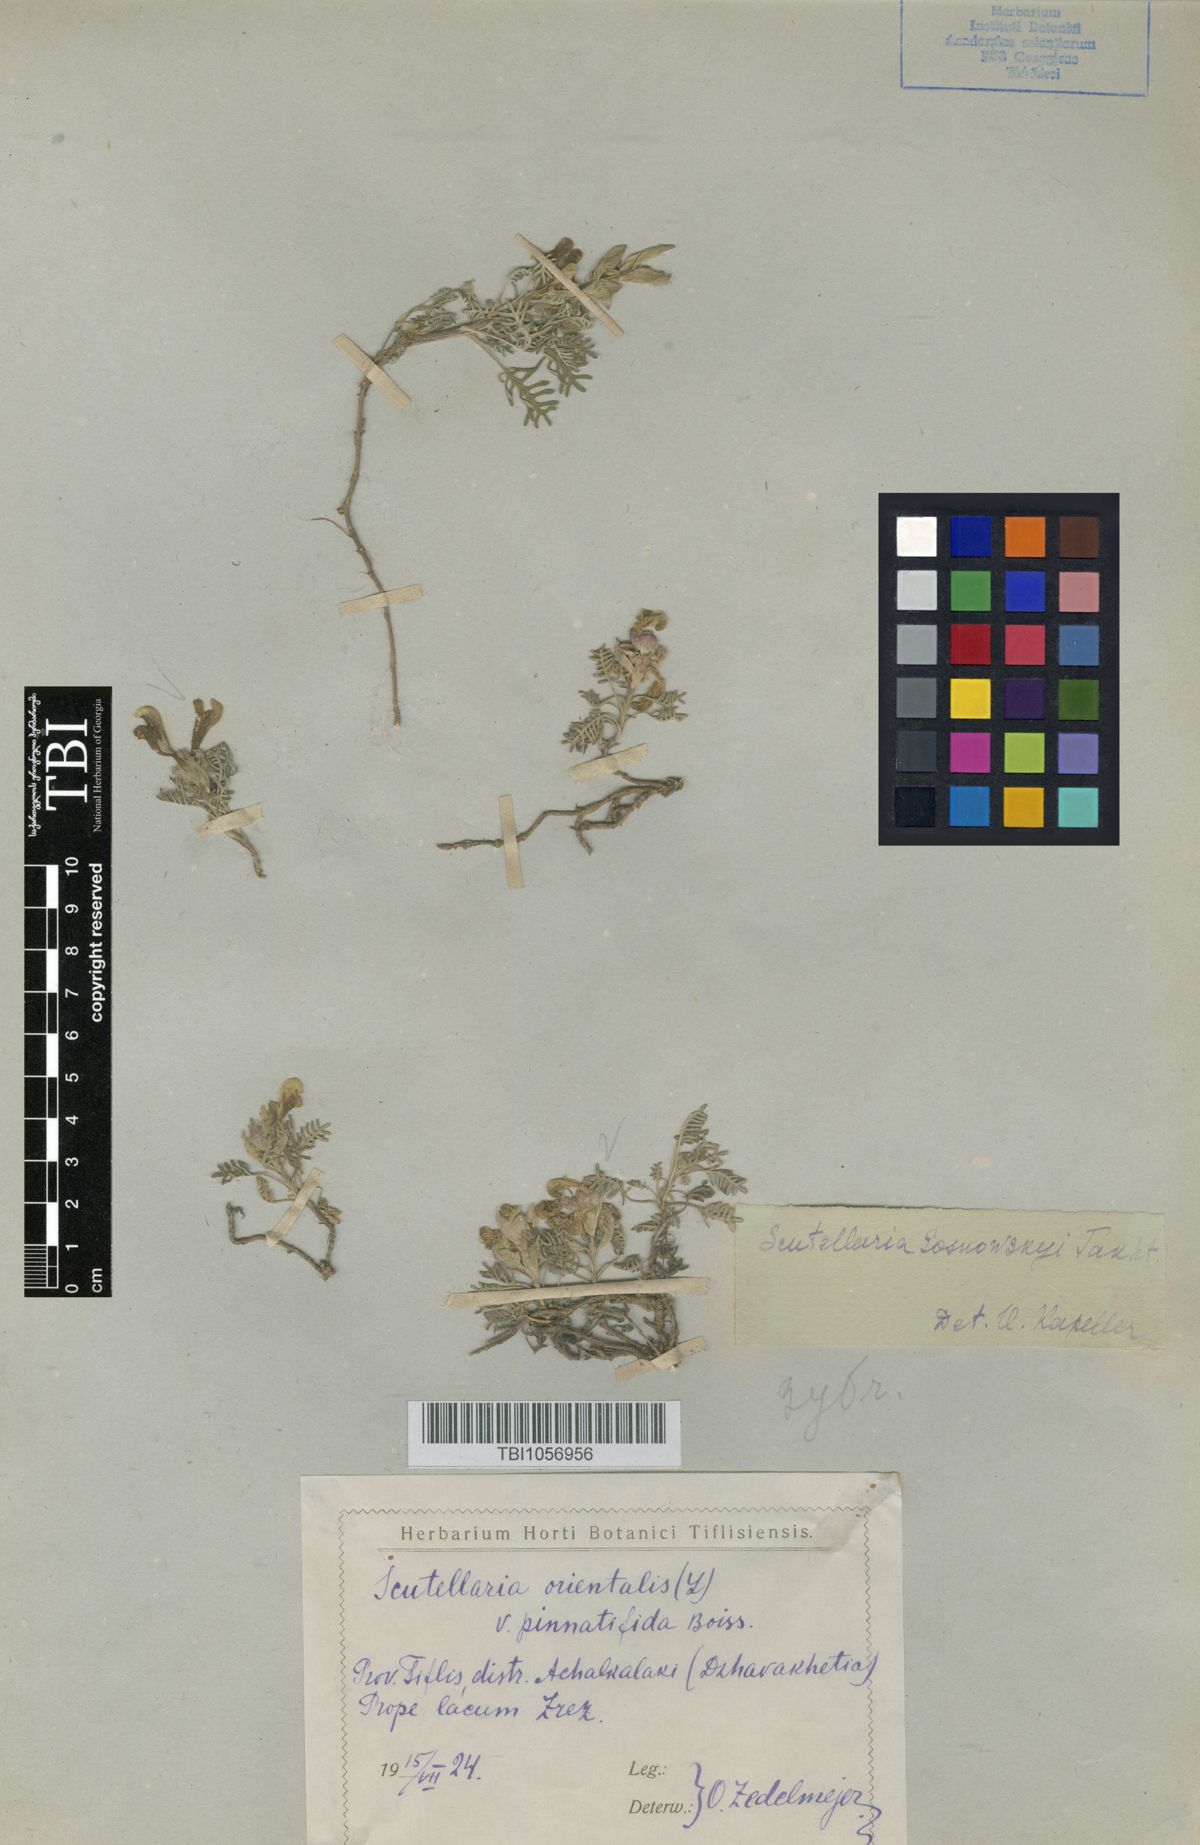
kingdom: Plantae
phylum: Tracheophyta
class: Magnoliopsida
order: Lamiales
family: Lamiaceae
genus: Scutellaria
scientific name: Scutellaria sosnowskyi
